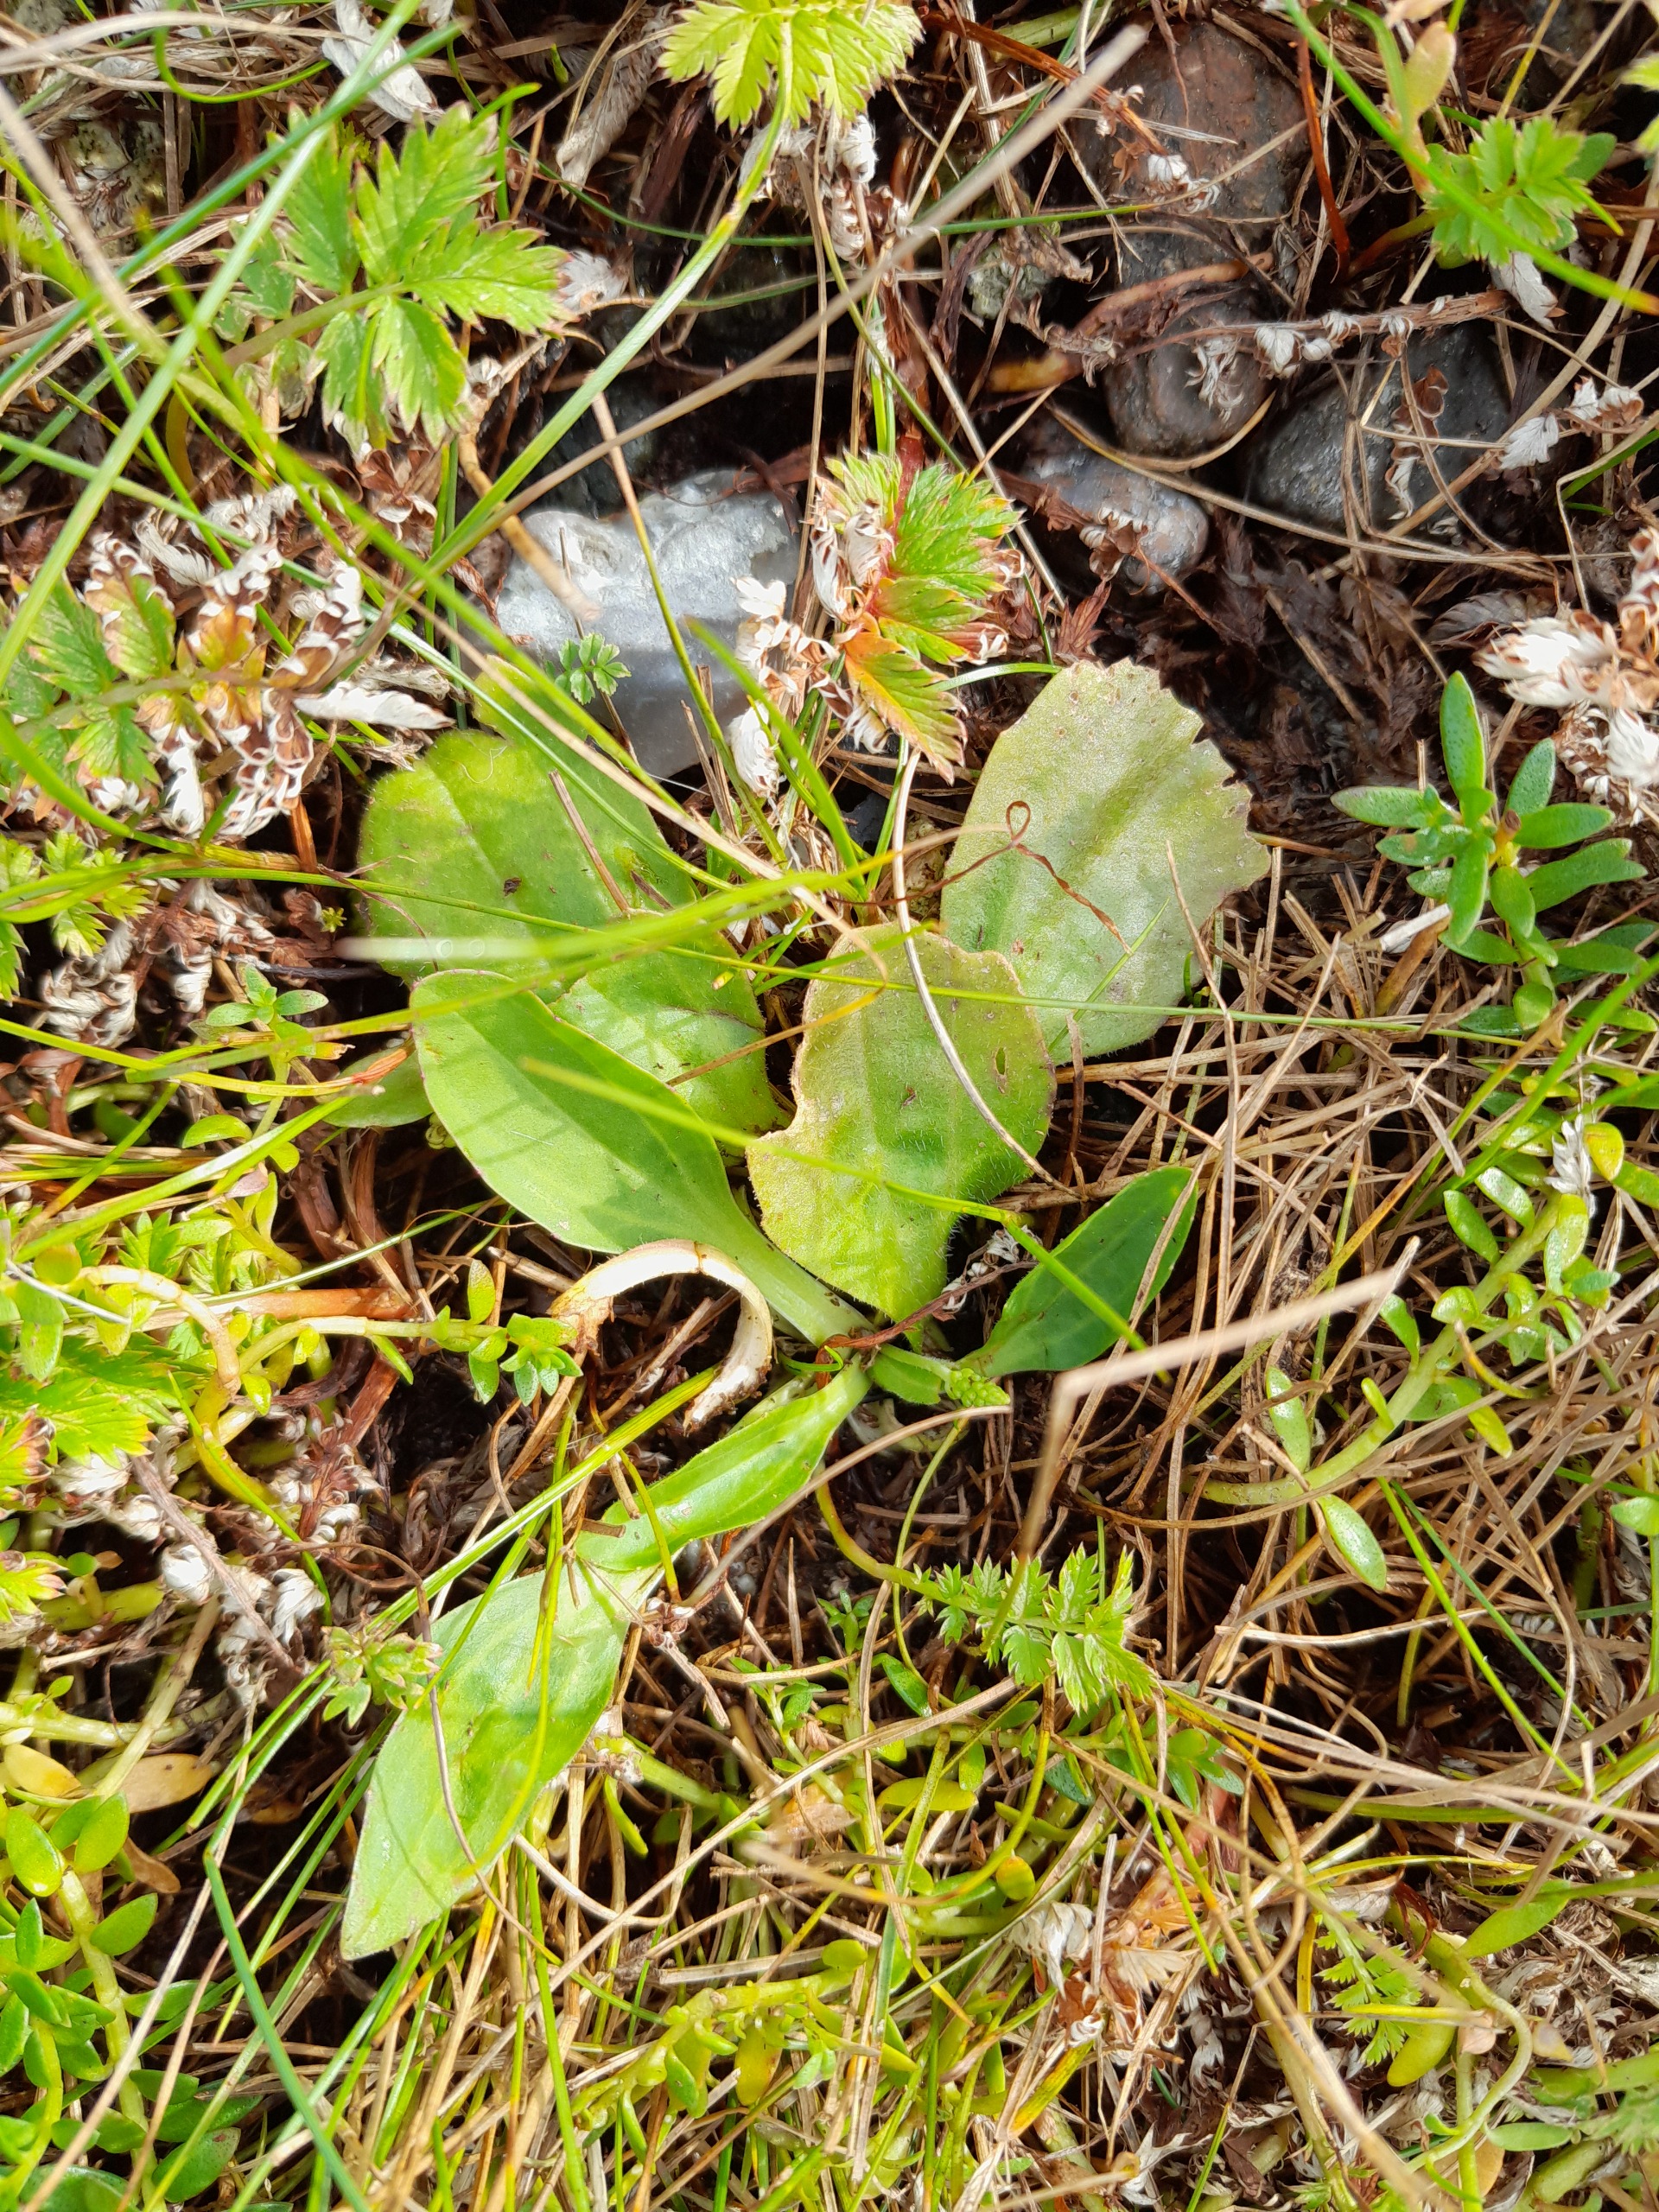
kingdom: Plantae
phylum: Tracheophyta
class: Magnoliopsida
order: Lamiales
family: Plantaginaceae
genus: Plantago
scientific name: Plantago uliginosa
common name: Eng-vejbred
